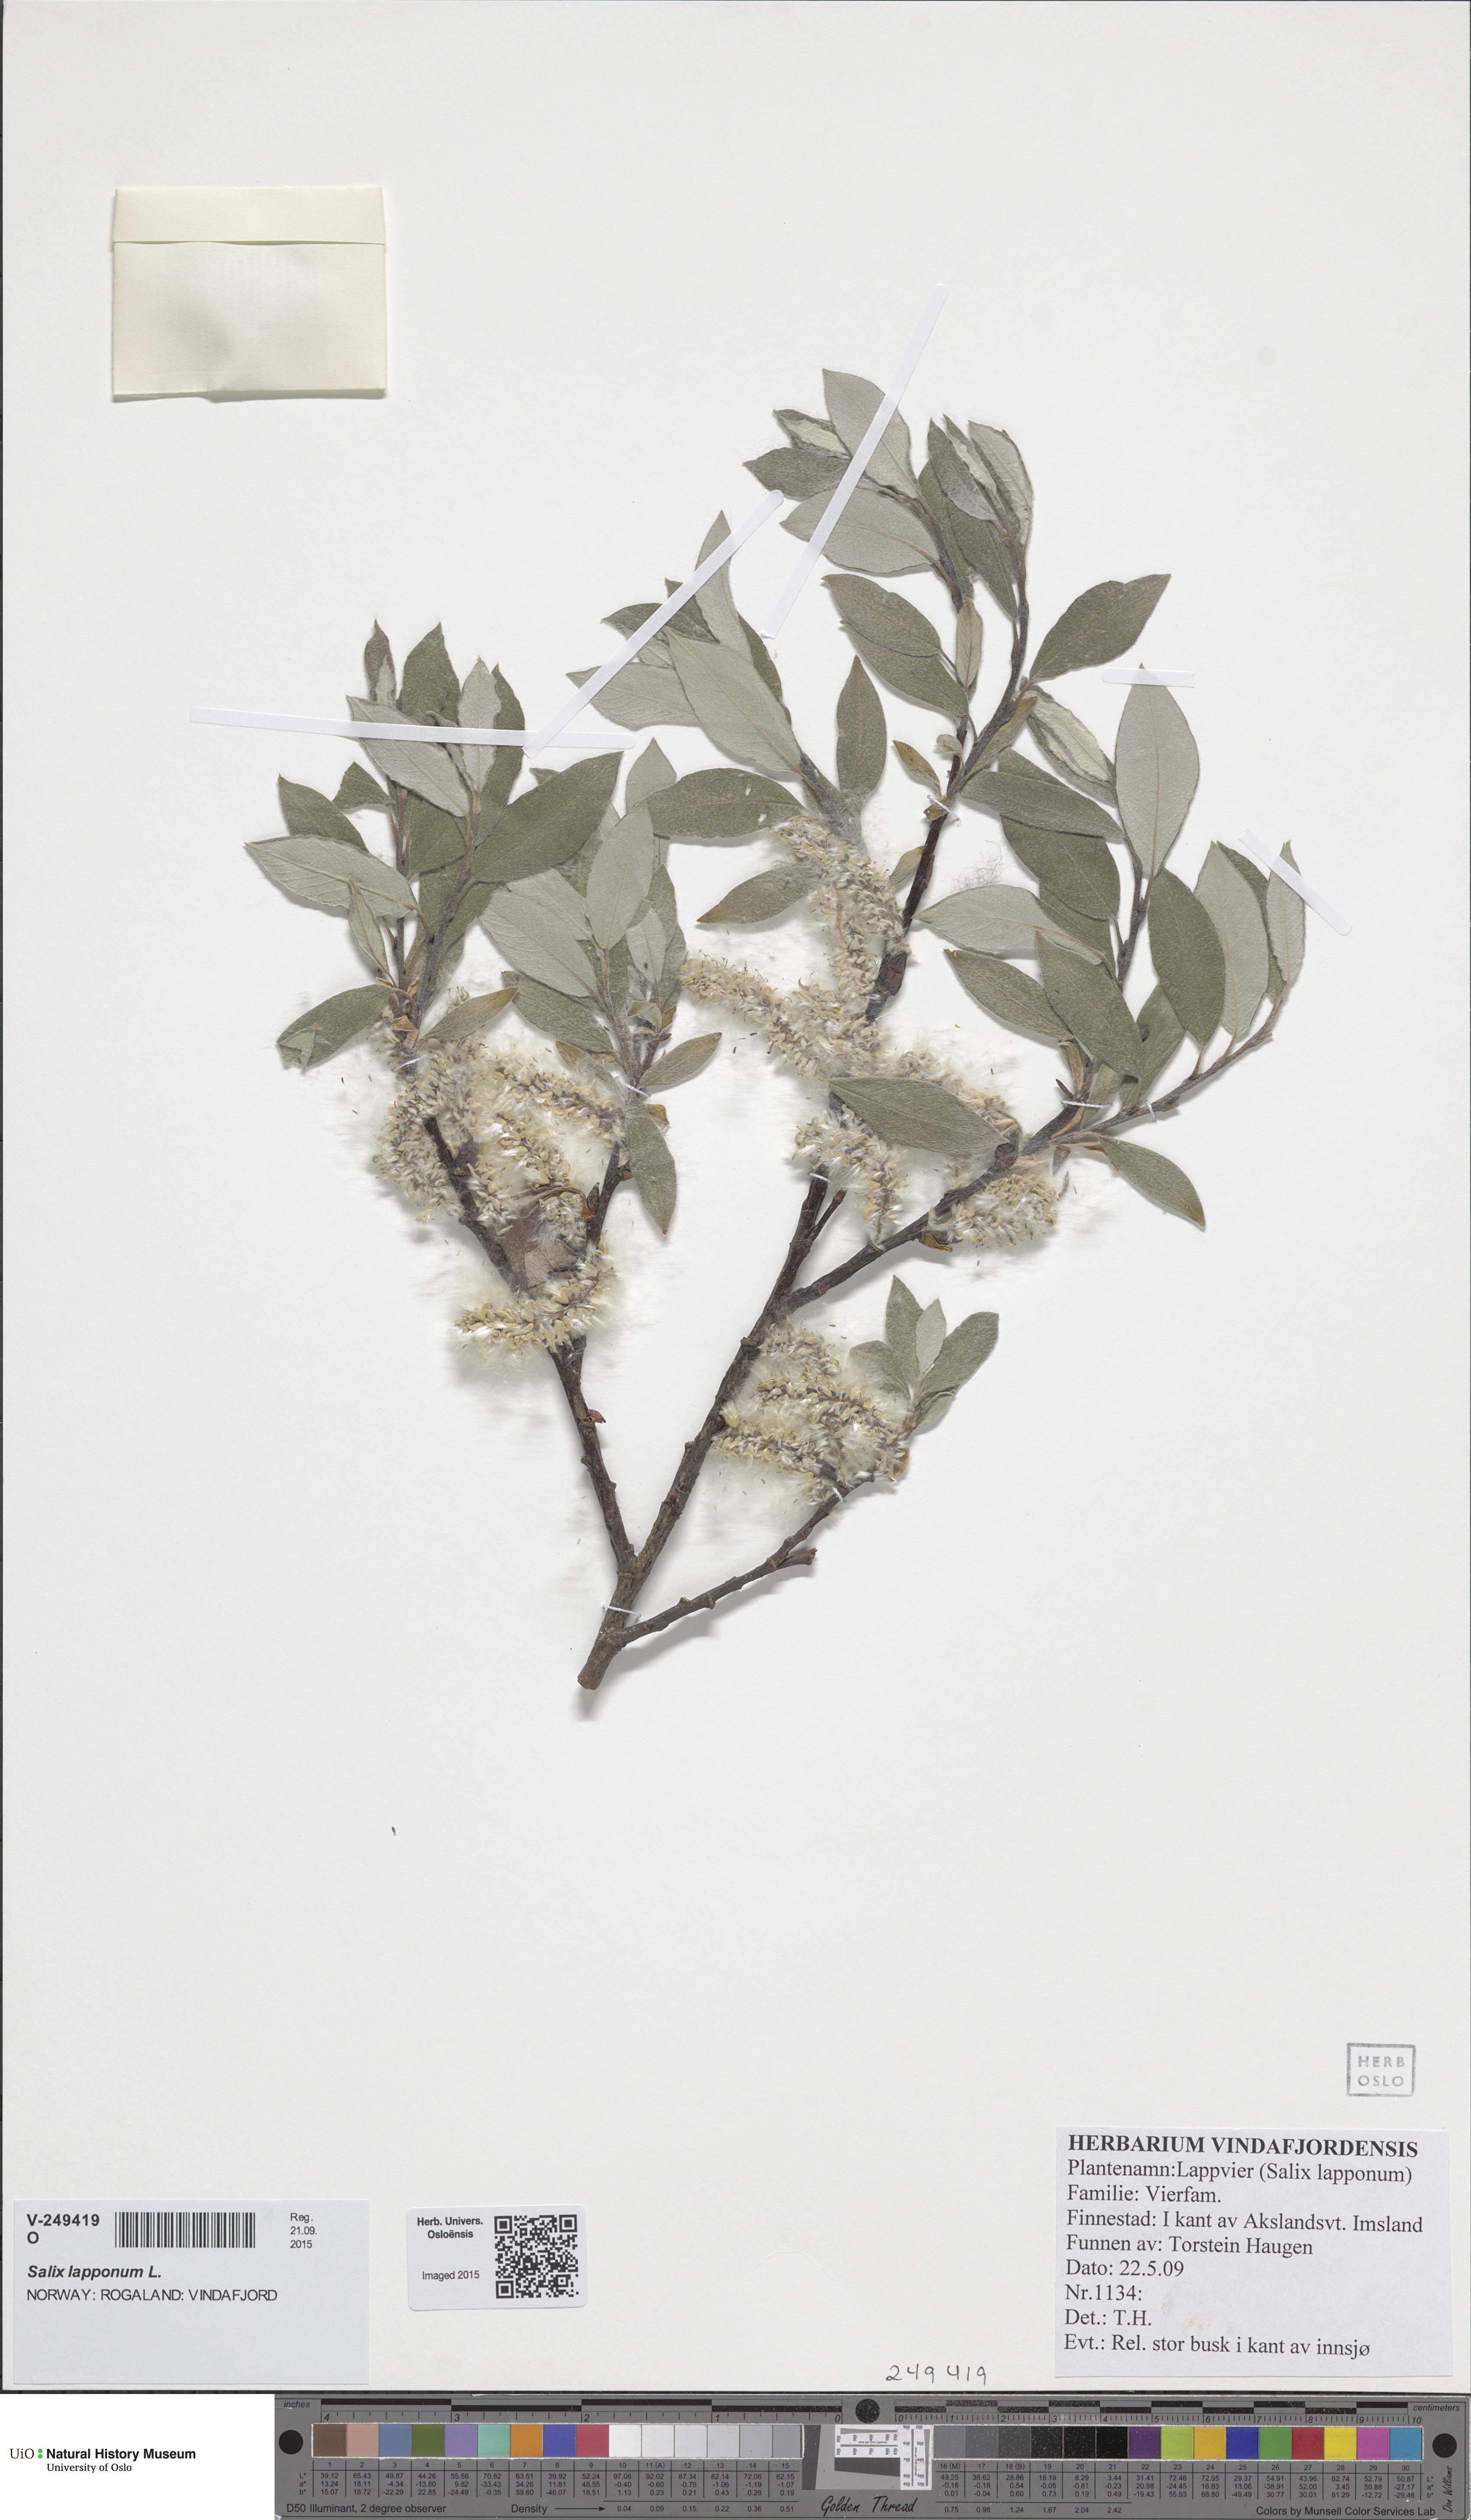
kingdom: Plantae
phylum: Tracheophyta
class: Magnoliopsida
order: Malpighiales
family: Salicaceae
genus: Salix
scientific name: Salix lapponum
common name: Downy willow
